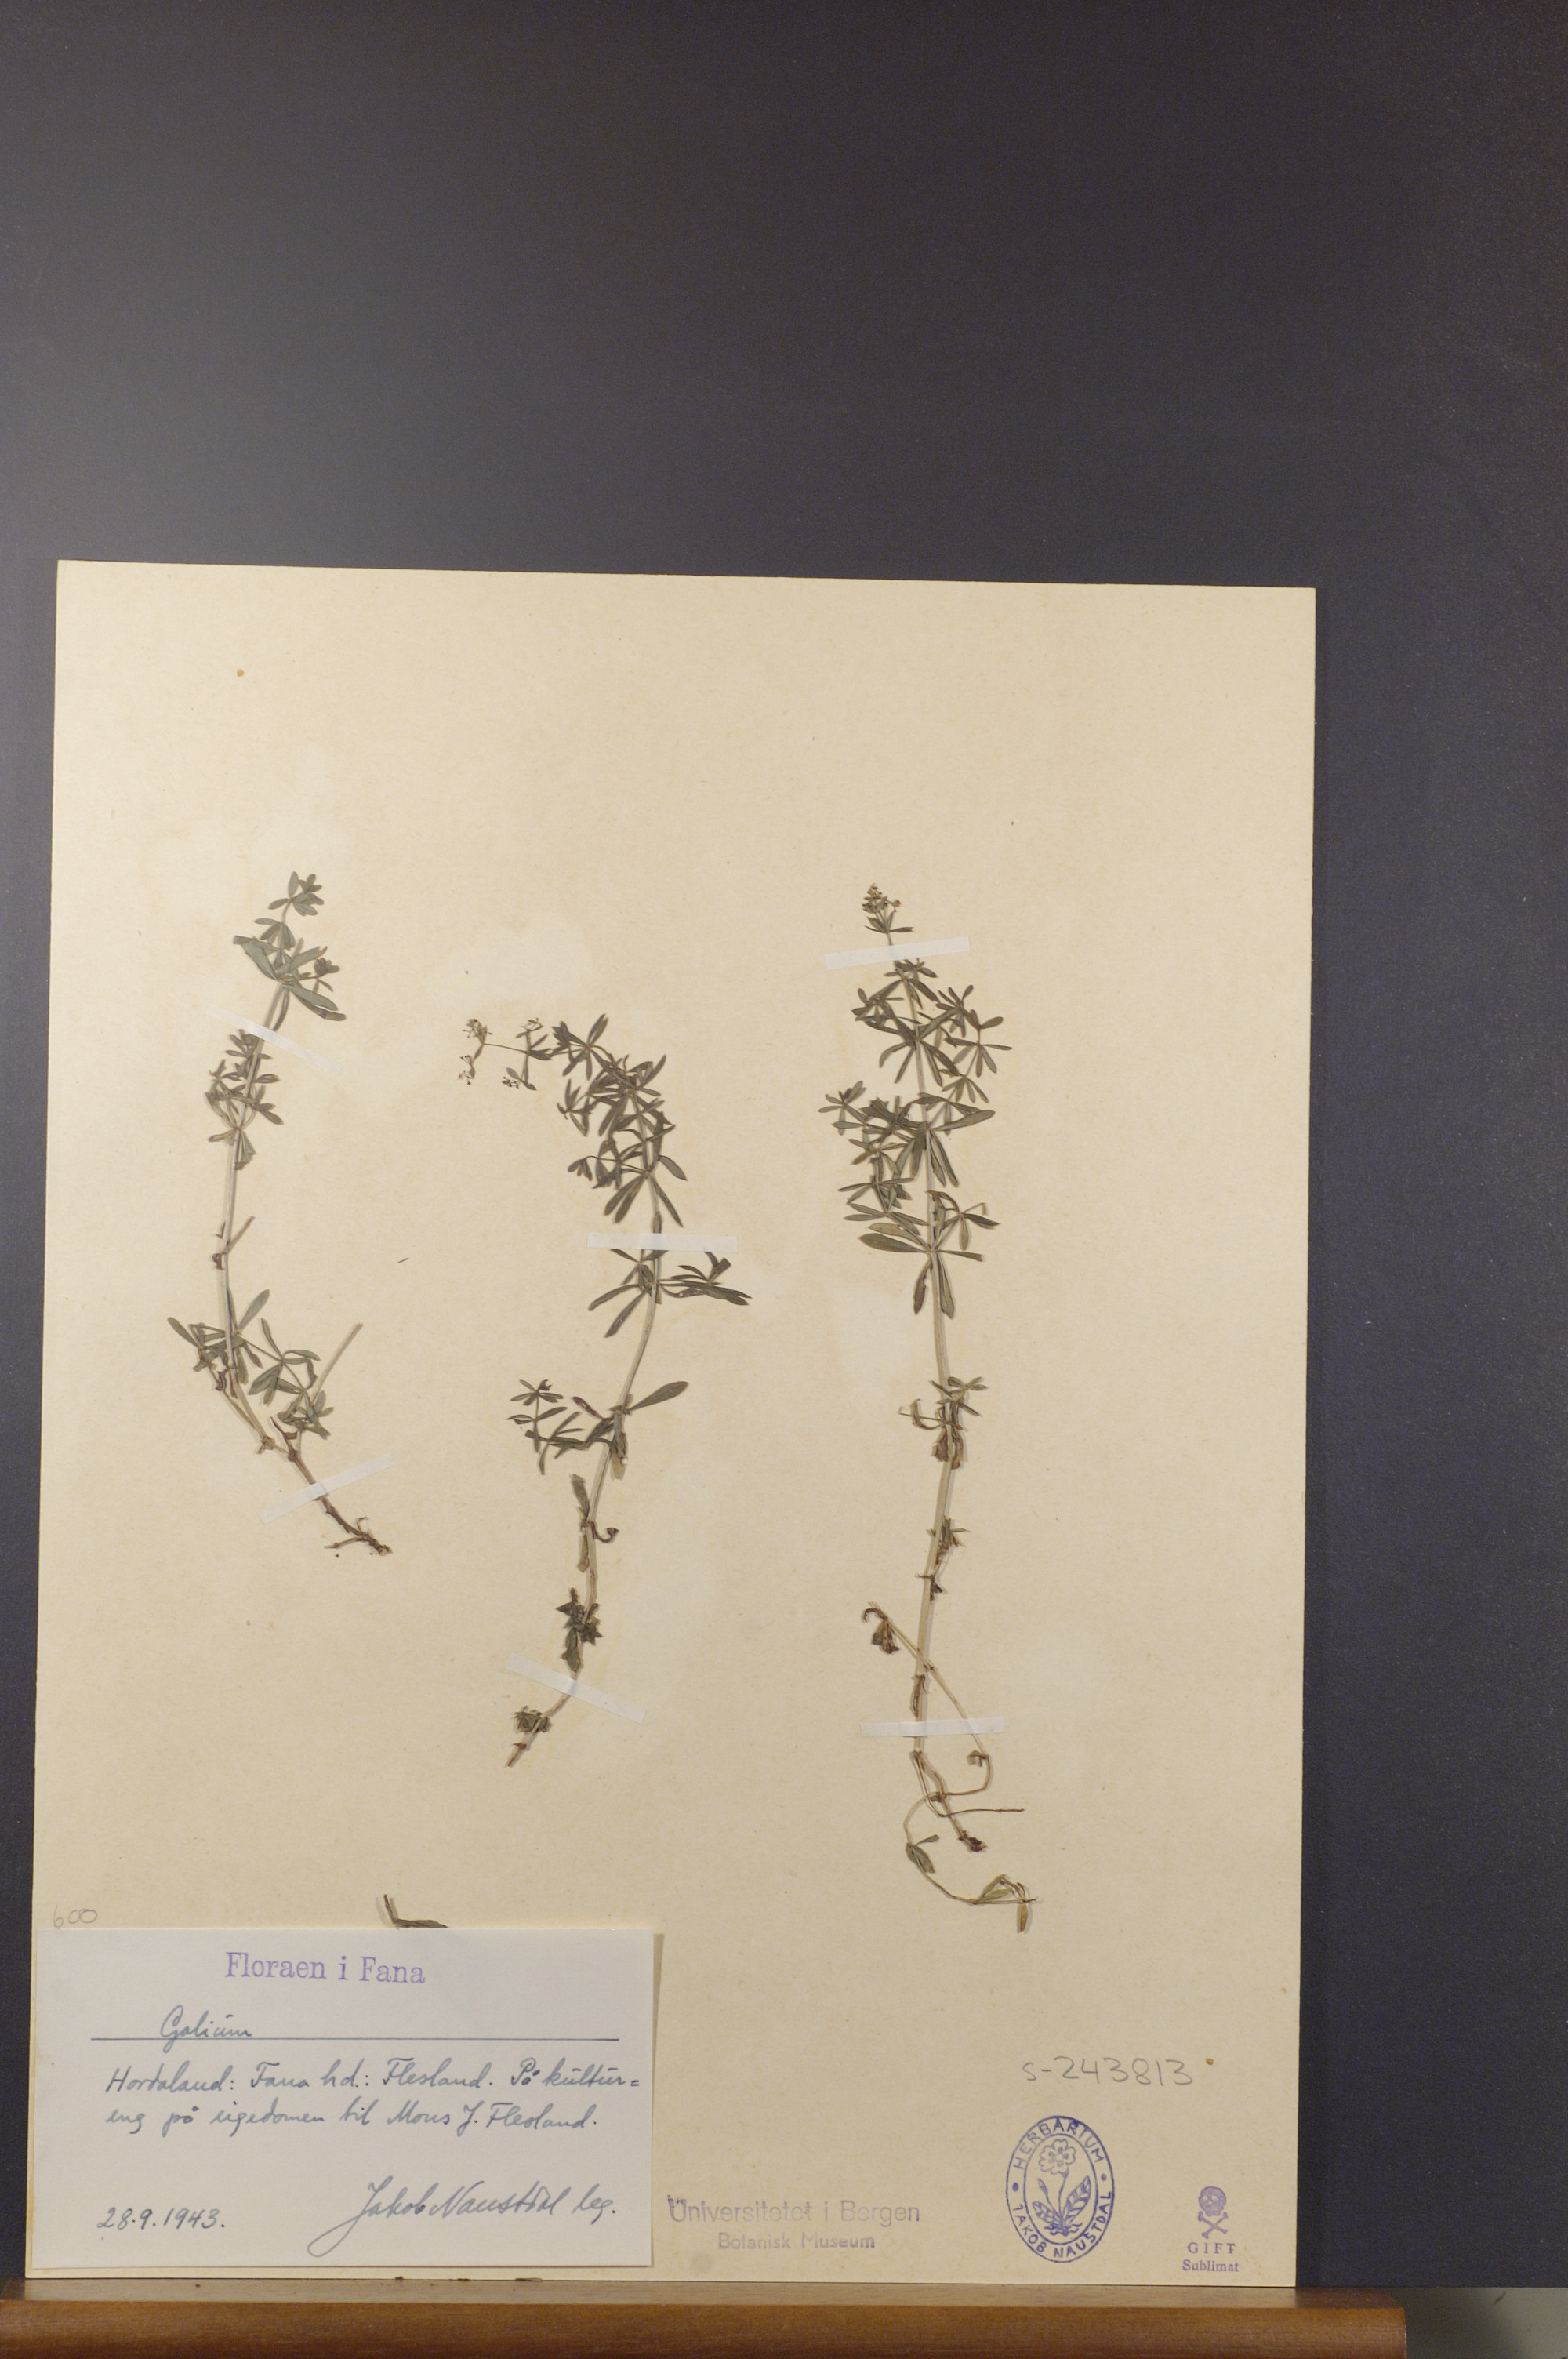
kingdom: Plantae
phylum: Tracheophyta
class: Magnoliopsida
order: Gentianales
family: Rubiaceae
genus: Galium
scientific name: Galium
